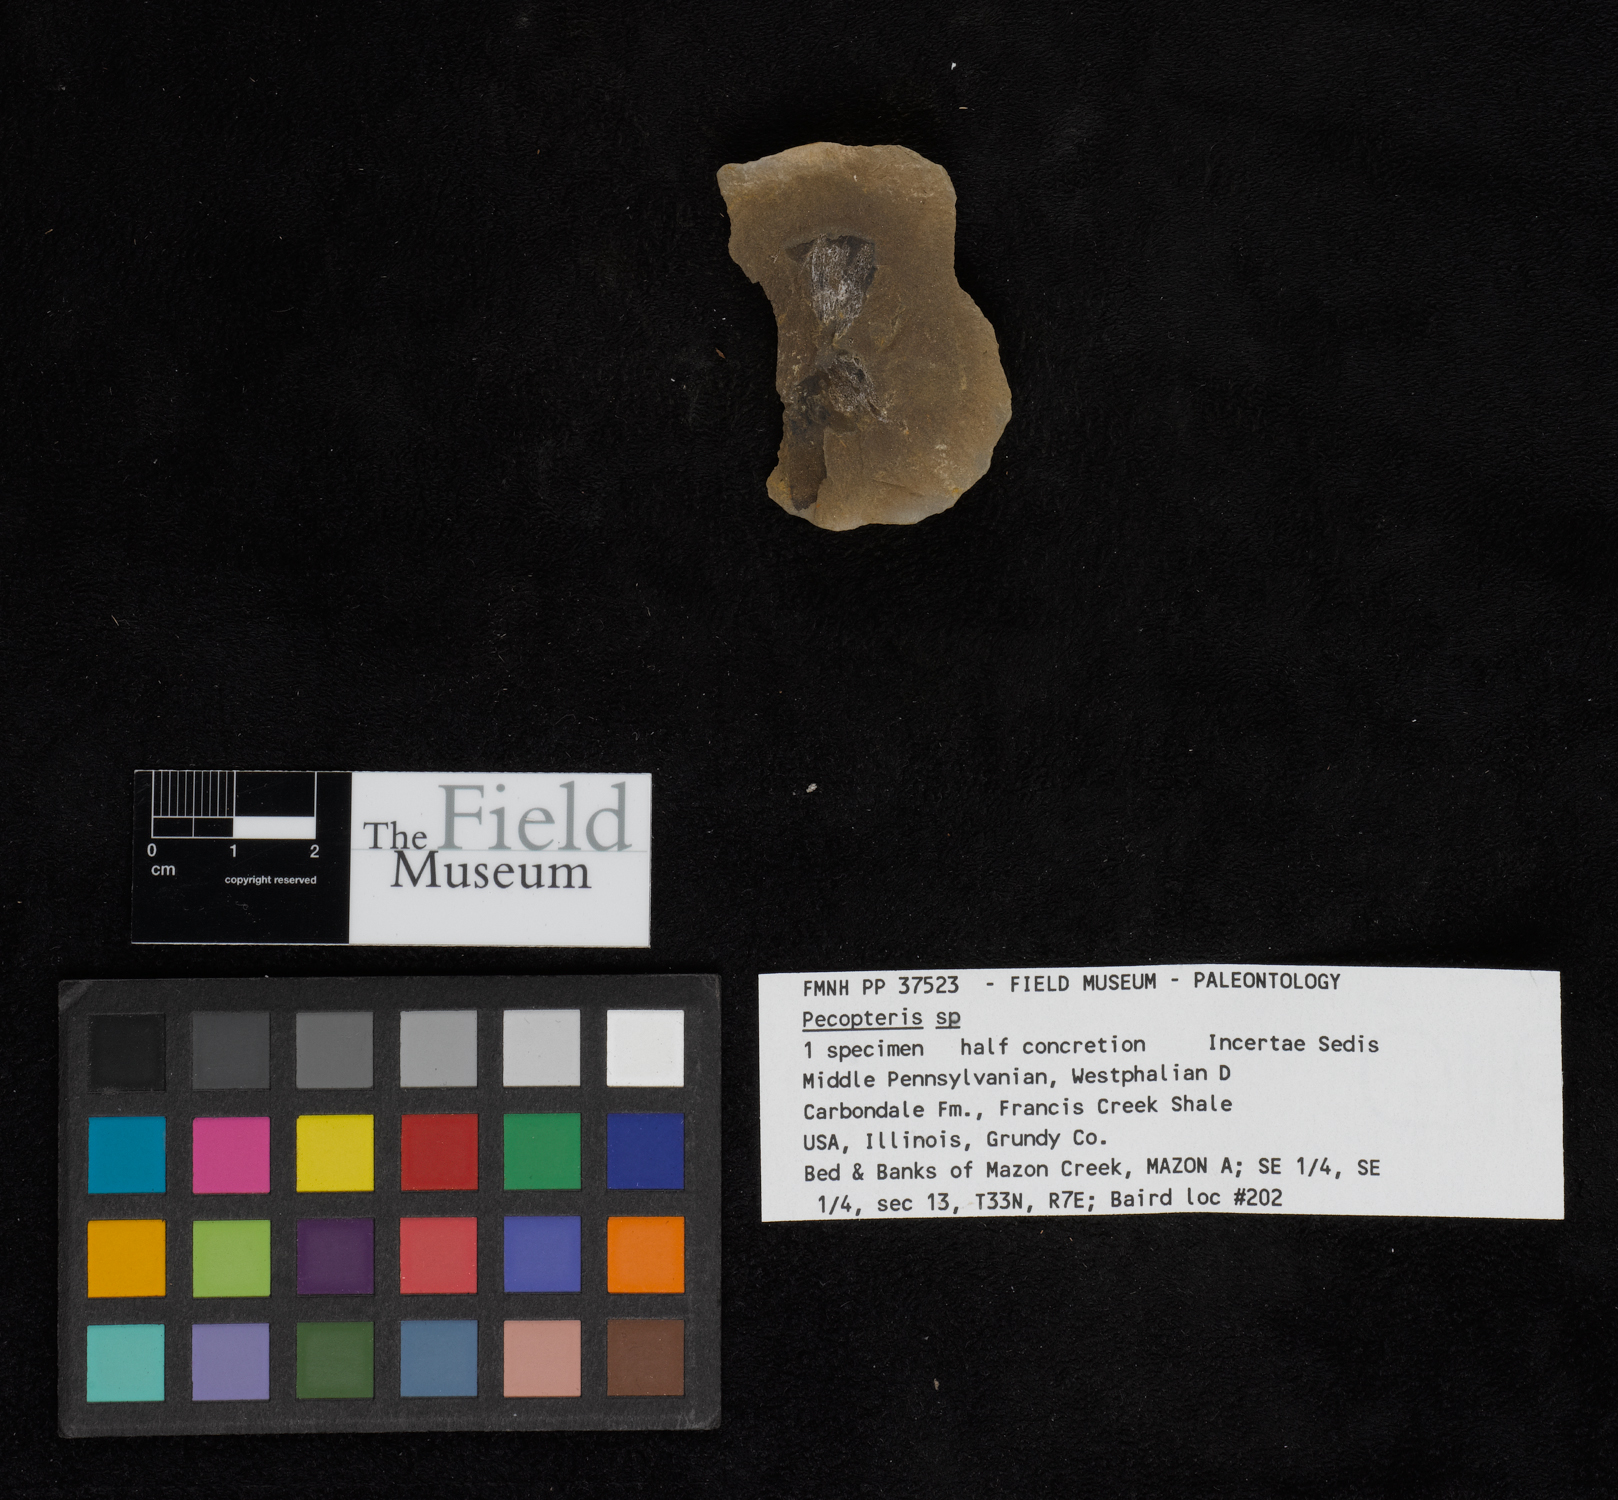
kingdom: Plantae
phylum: Tracheophyta
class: Polypodiopsida
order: Marattiales
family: Asterothecaceae
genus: Pecopteris
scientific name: Pecopteris
